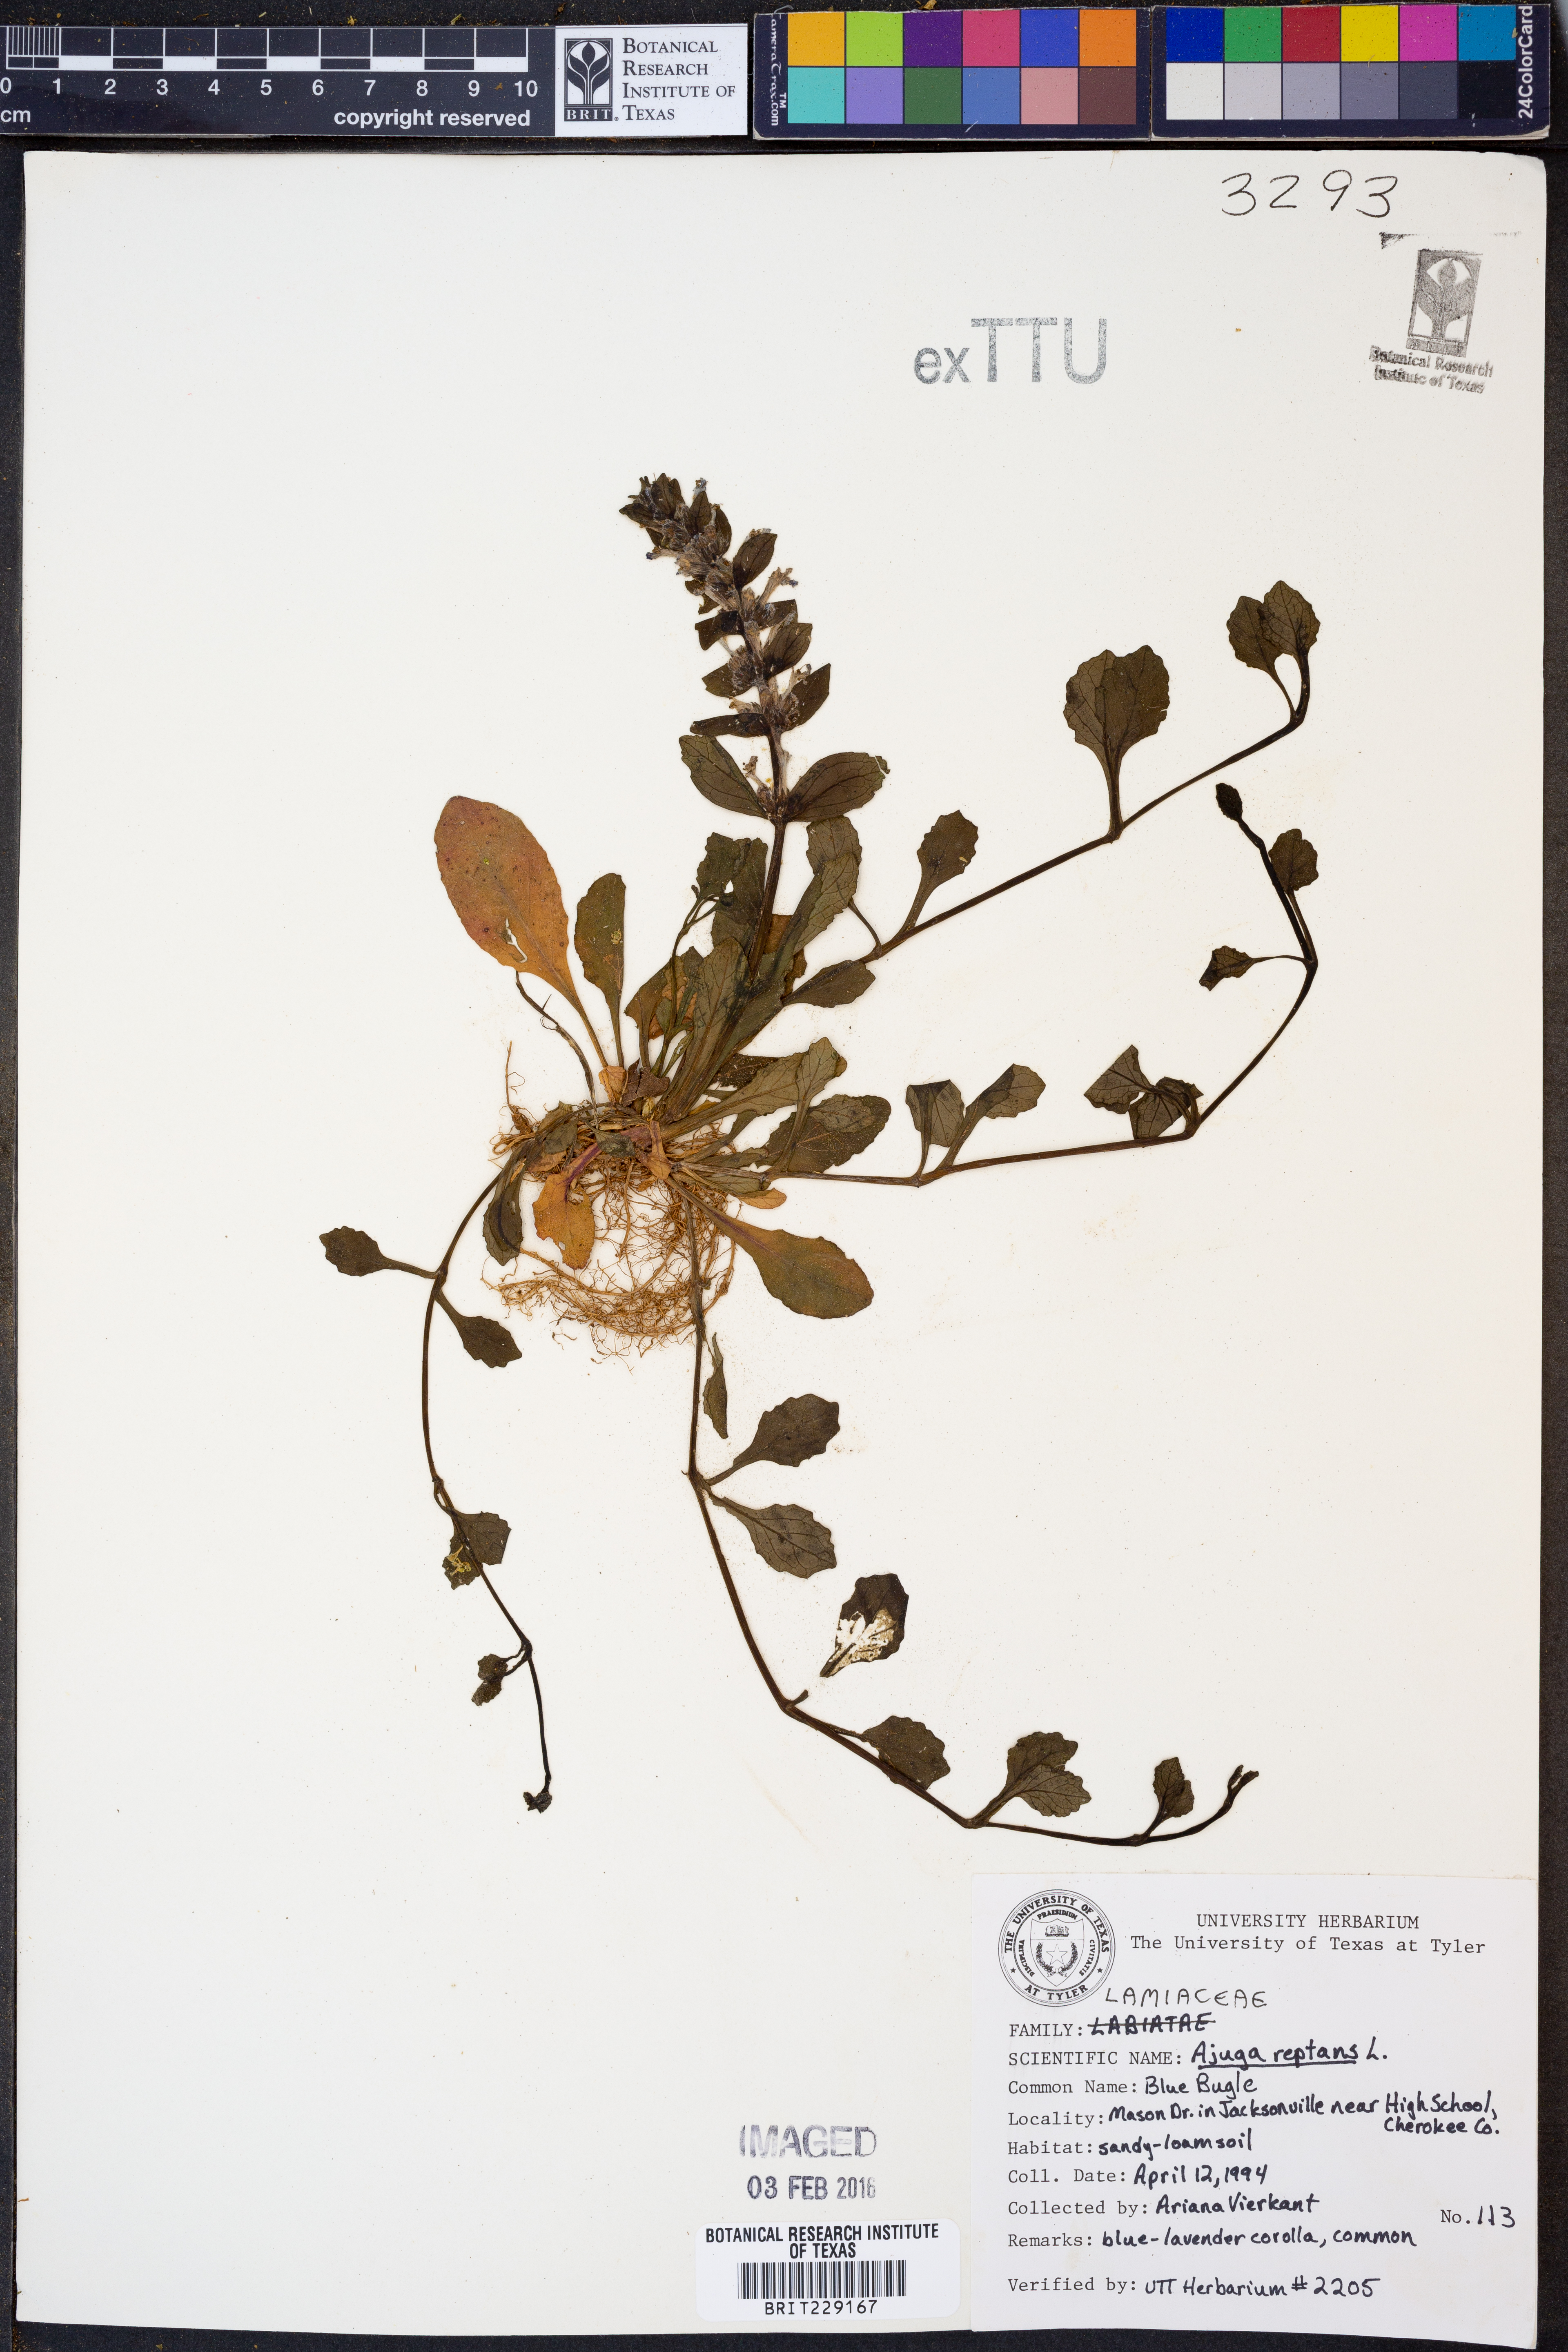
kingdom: Plantae
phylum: Tracheophyta
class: Magnoliopsida
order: Lamiales
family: Lamiaceae
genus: Ajuga
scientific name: Ajuga reptans
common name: Bugle
